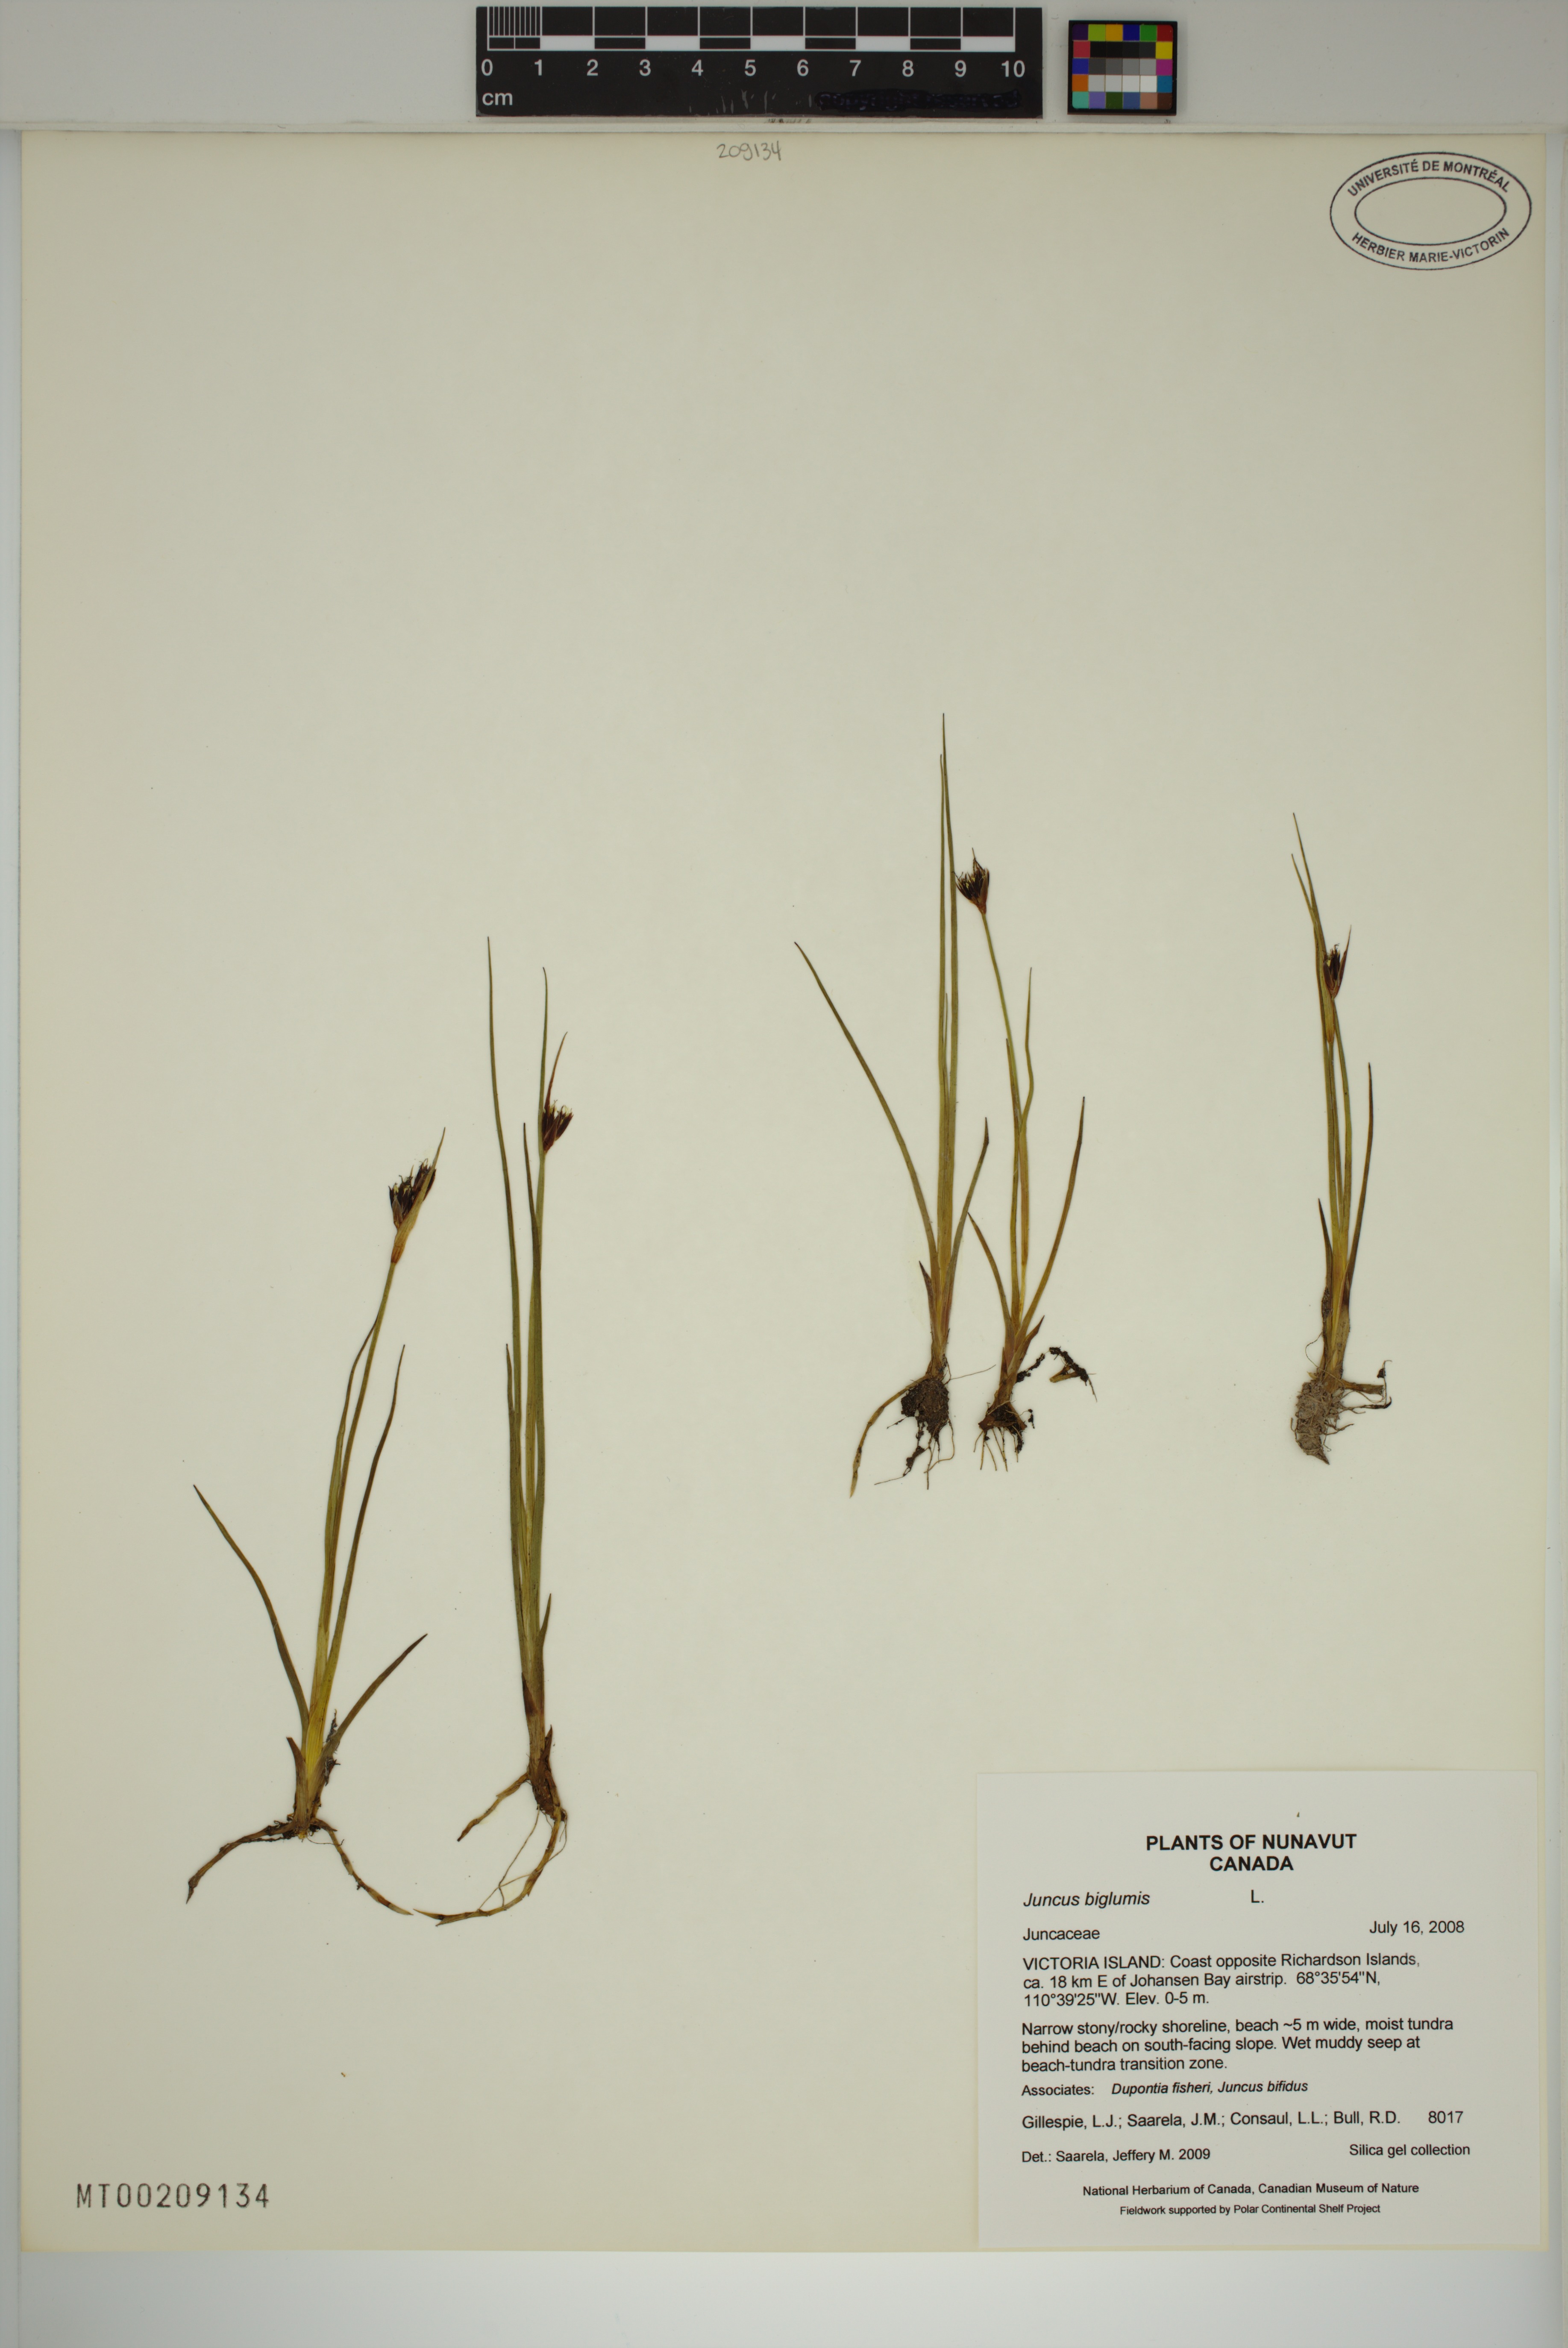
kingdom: Plantae
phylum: Tracheophyta
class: Liliopsida
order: Poales
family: Juncaceae
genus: Juncus
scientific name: Juncus castaneus
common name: Chestnut rush
